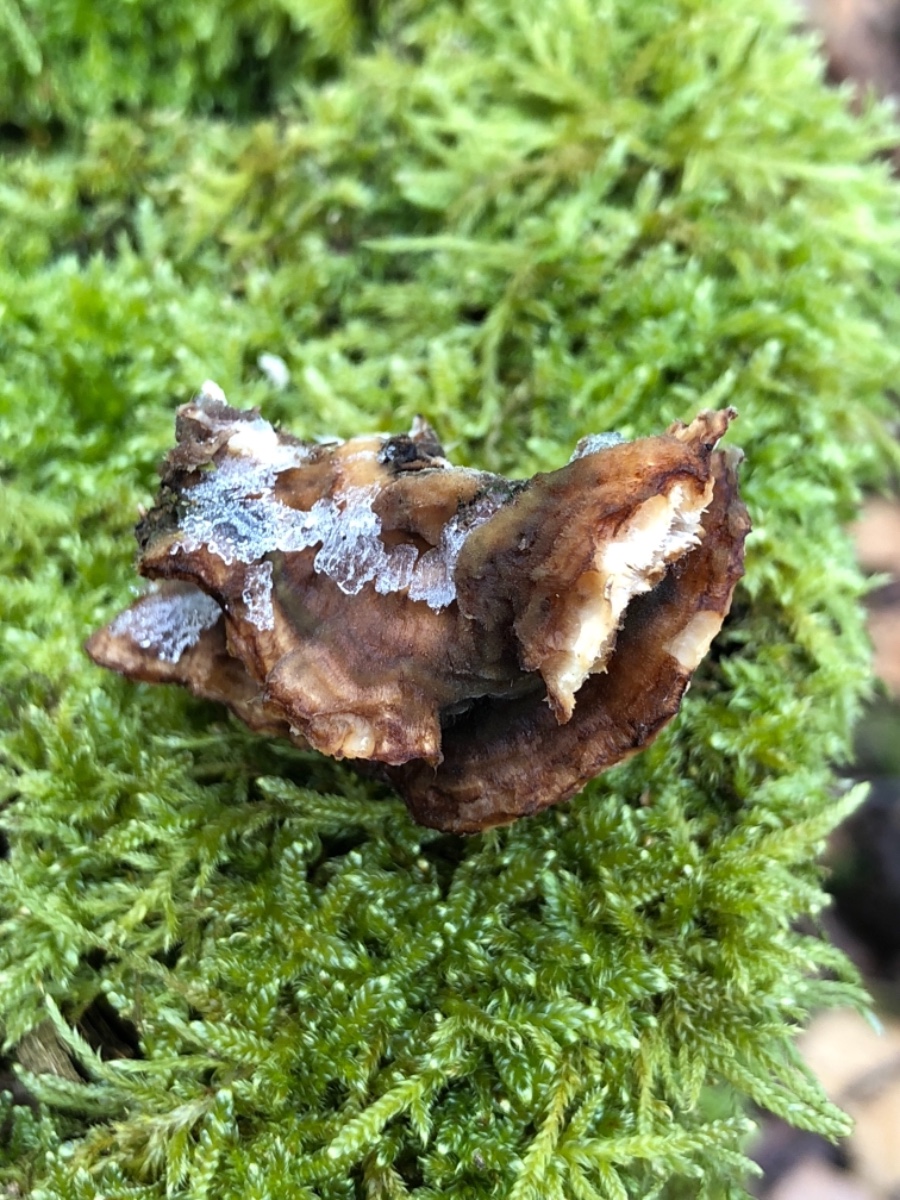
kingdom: Fungi
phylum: Basidiomycota
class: Agaricomycetes
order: Polyporales
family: Phanerochaetaceae
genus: Bjerkandera
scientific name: Bjerkandera fumosa
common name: grågul sodporesvamp
